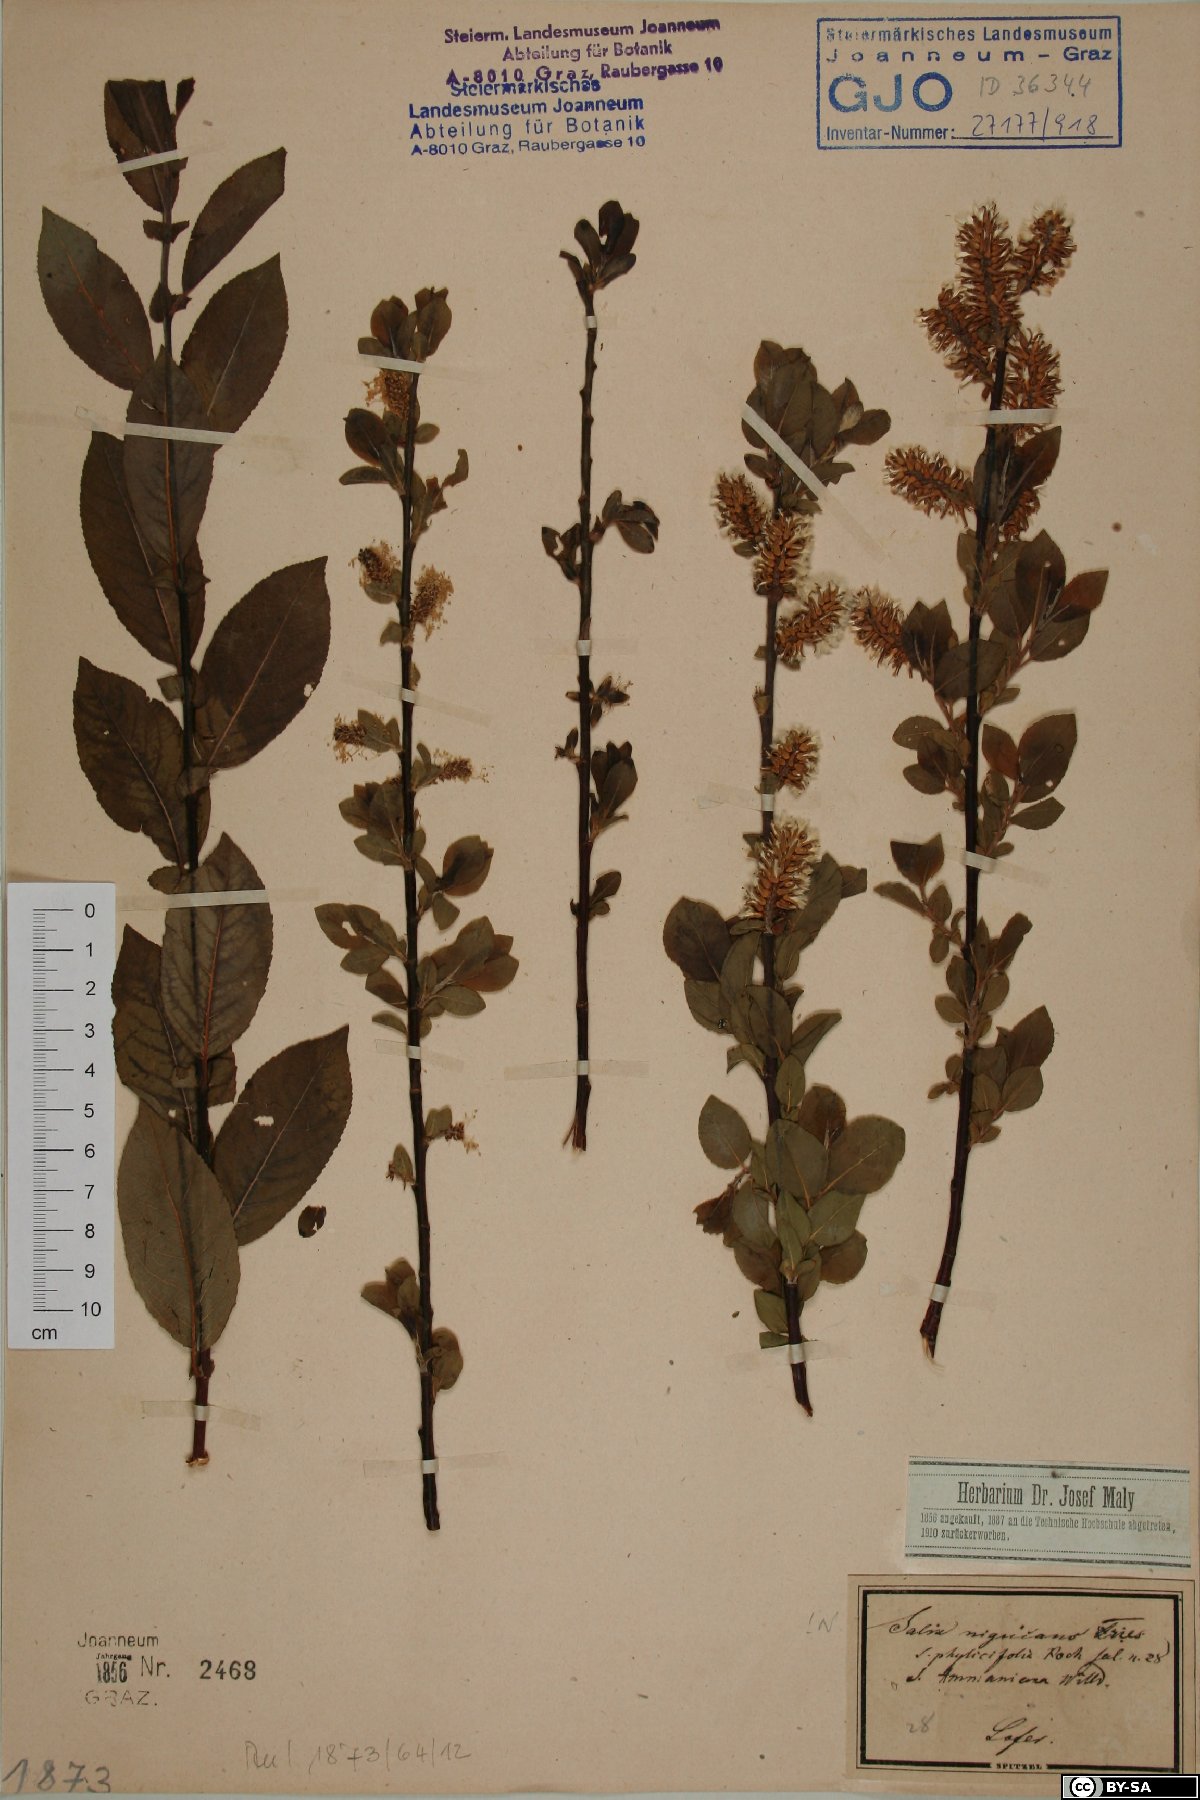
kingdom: Plantae
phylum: Tracheophyta
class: Magnoliopsida
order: Malpighiales
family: Salicaceae
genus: Salix
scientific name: Salix myrsinifolia
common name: Dark-leaved willow
